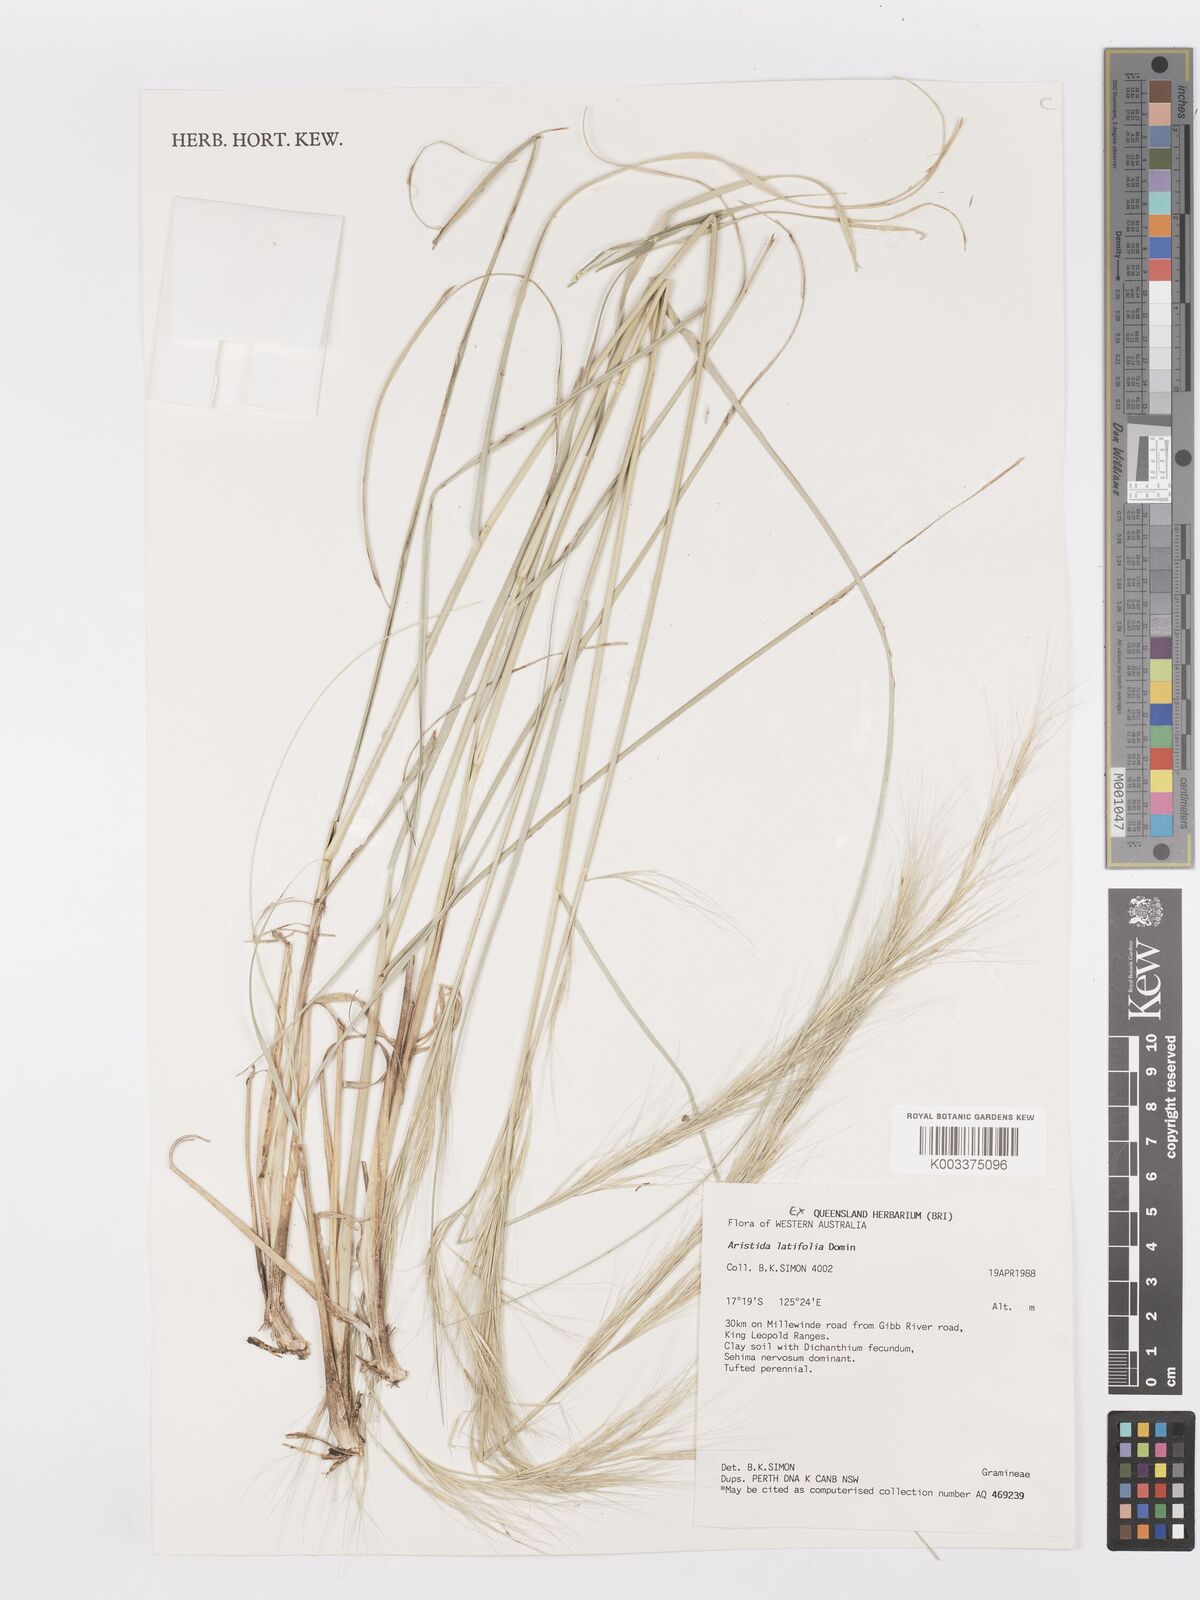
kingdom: Plantae
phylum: Tracheophyta
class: Liliopsida
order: Poales
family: Poaceae
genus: Aristida
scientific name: Aristida latifolia
